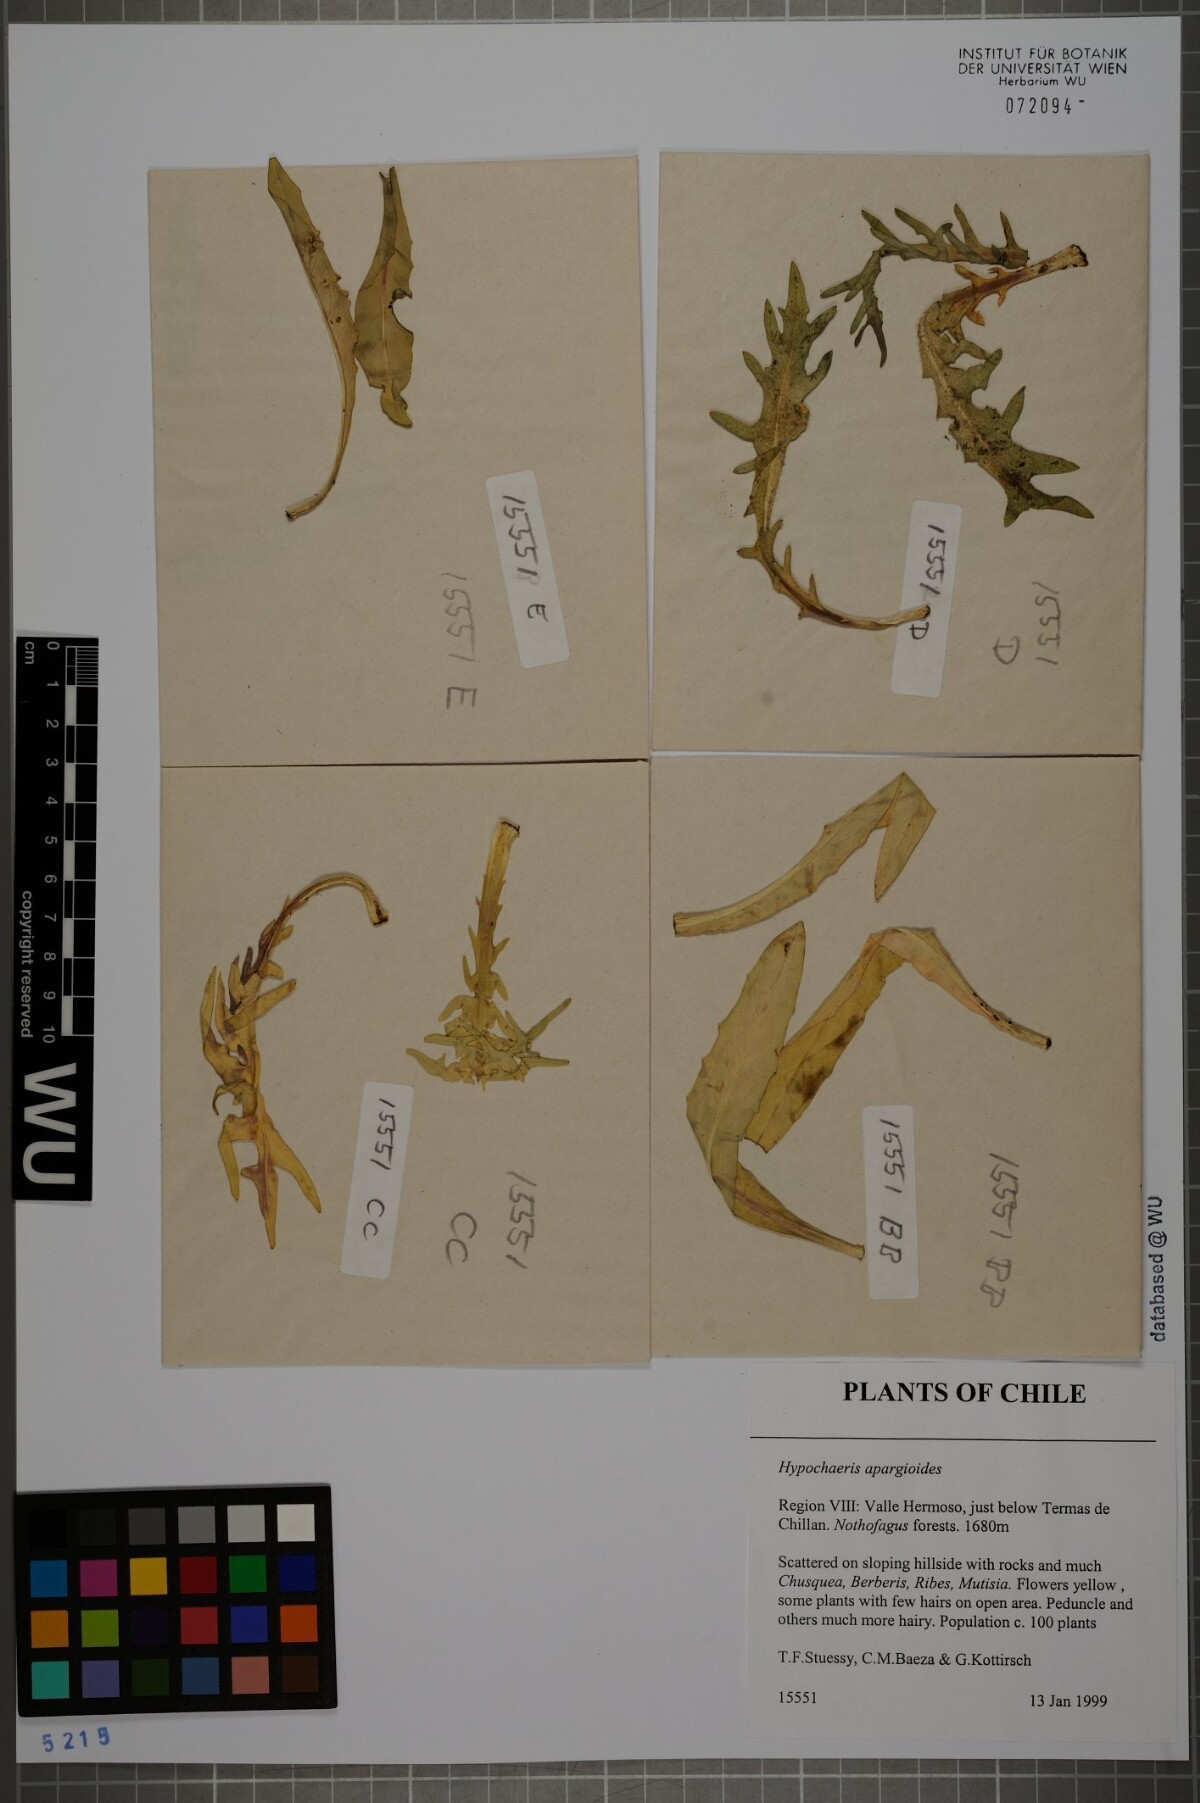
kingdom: Plantae
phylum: Tracheophyta
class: Magnoliopsida
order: Asterales
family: Asteraceae
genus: Hypochaeris
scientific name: Hypochaeris apargioides
